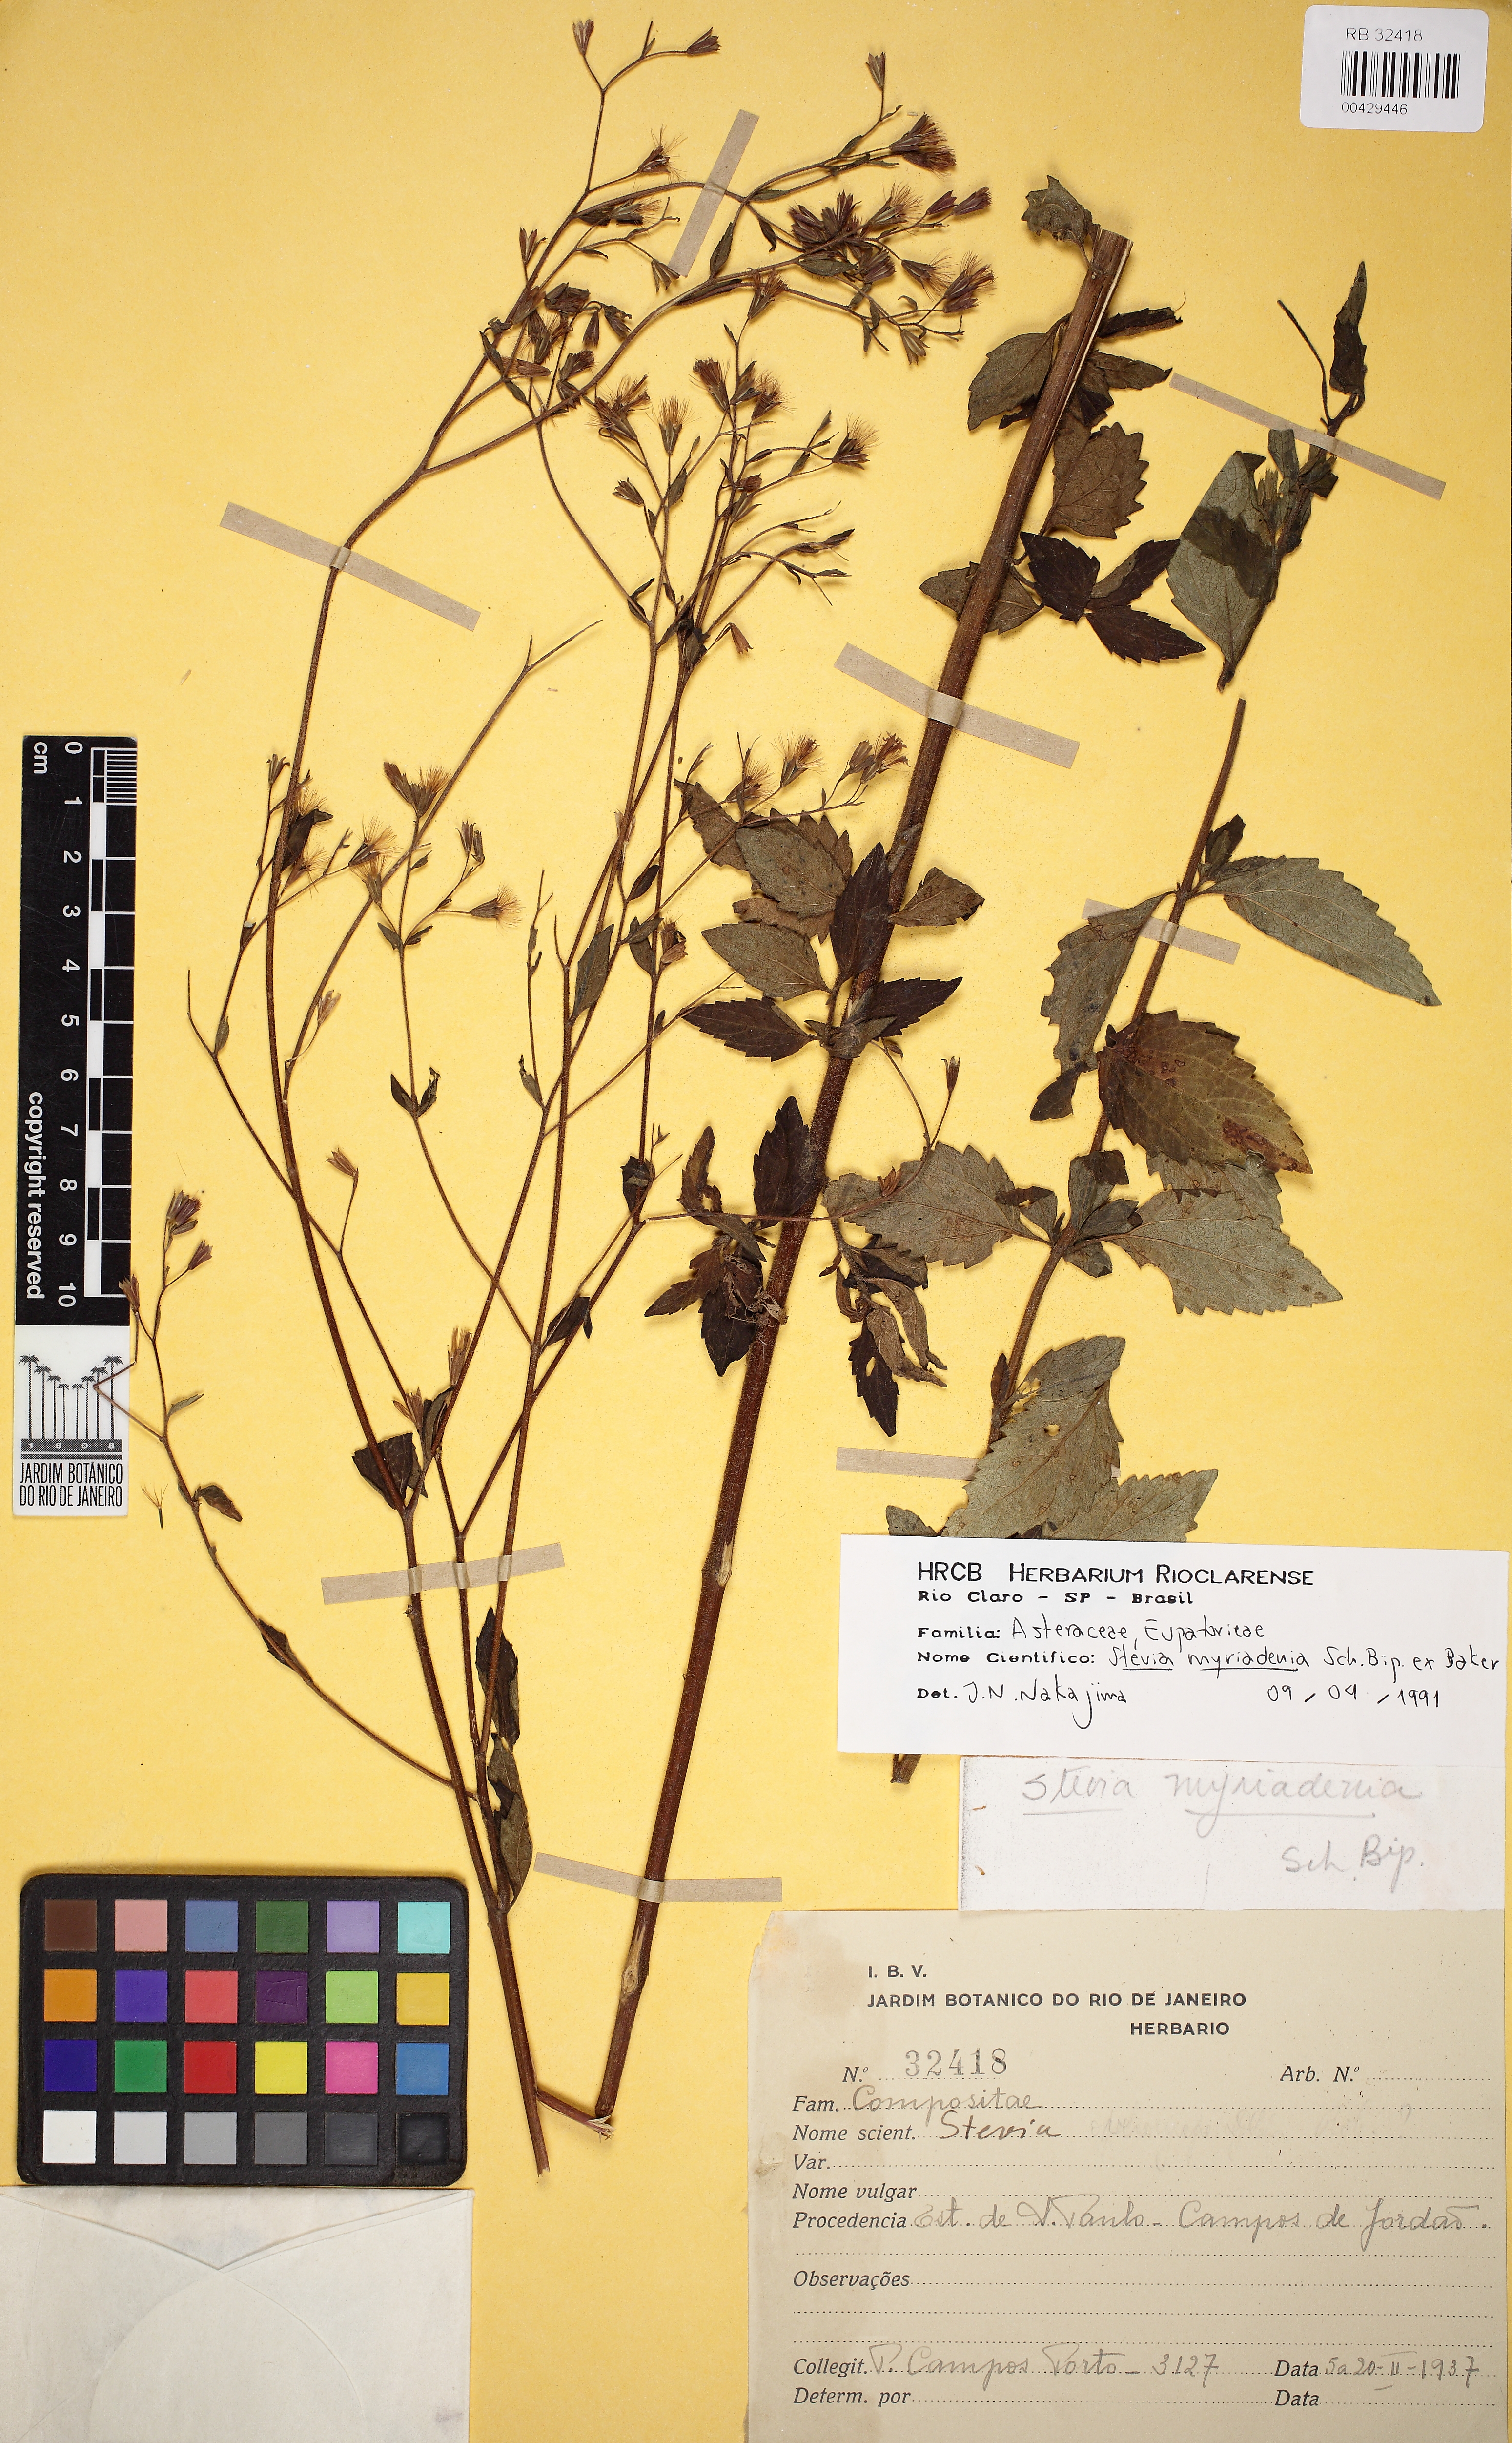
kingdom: Plantae
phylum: Tracheophyta
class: Magnoliopsida
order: Asterales
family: Asteraceae
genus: Stevia
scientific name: Stevia myriadenia
